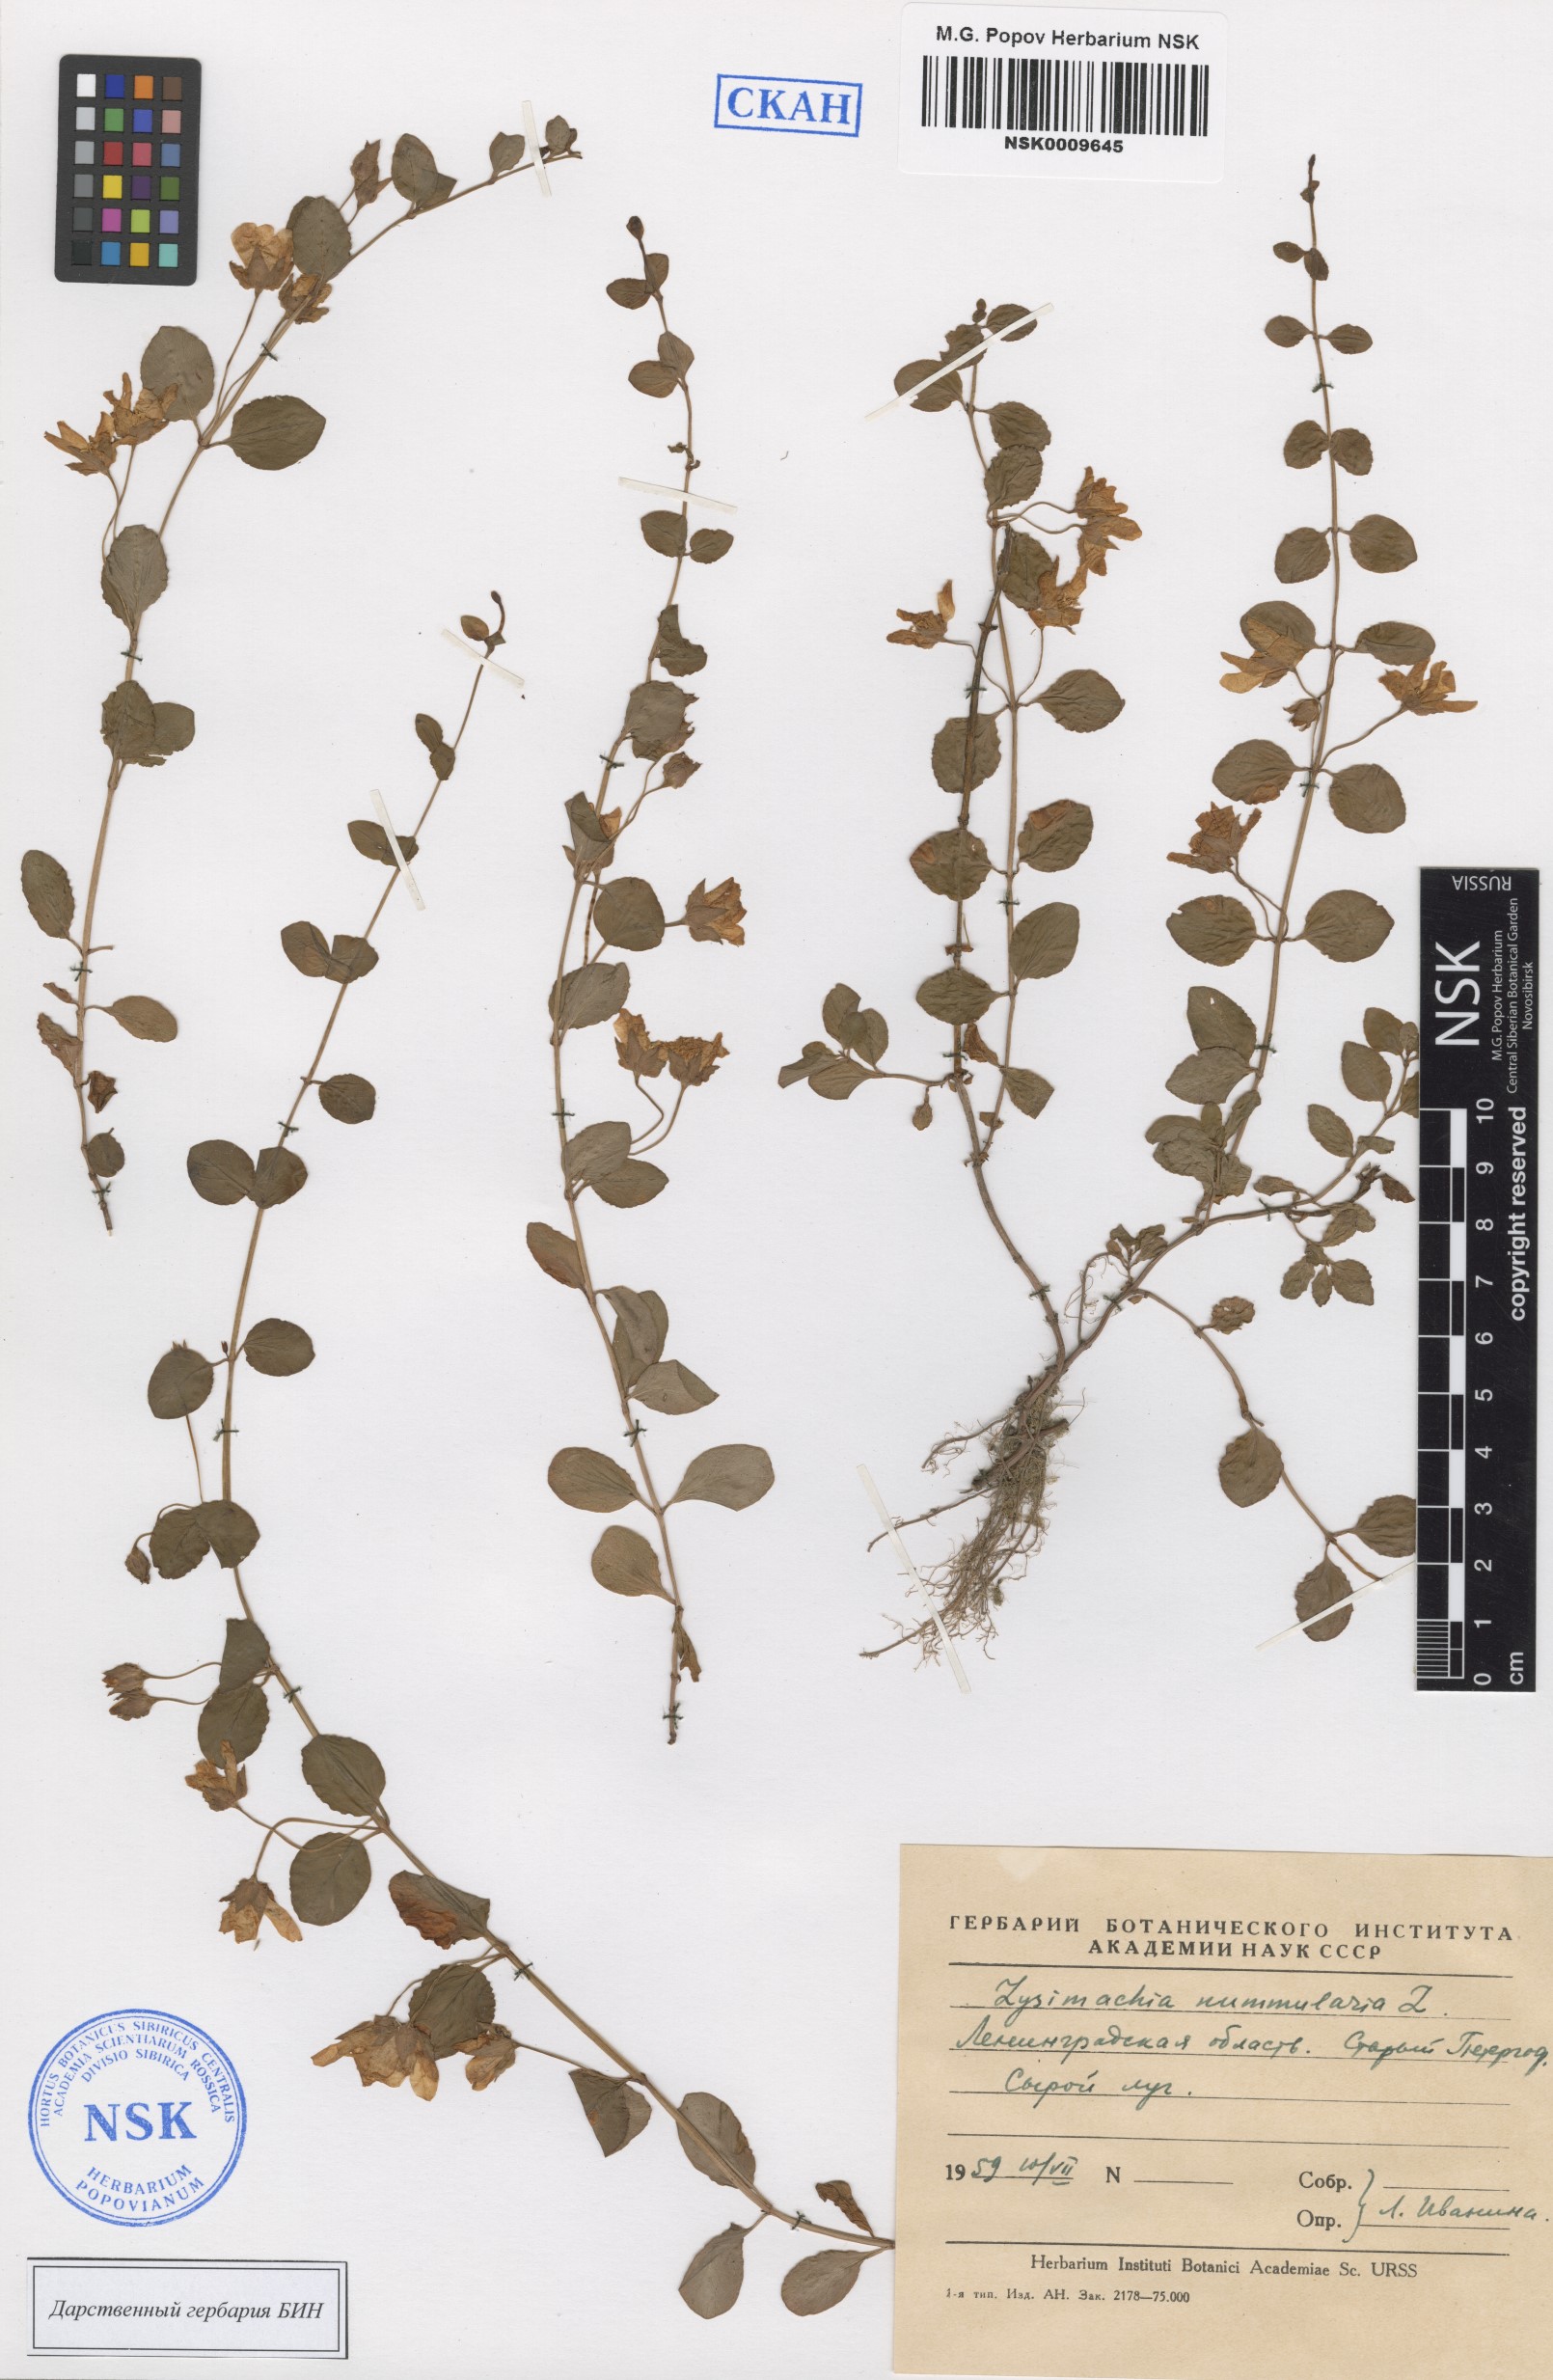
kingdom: Plantae
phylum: Tracheophyta
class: Magnoliopsida
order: Ericales
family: Primulaceae
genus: Lysimachia
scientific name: Lysimachia nummularia
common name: Moneywort
